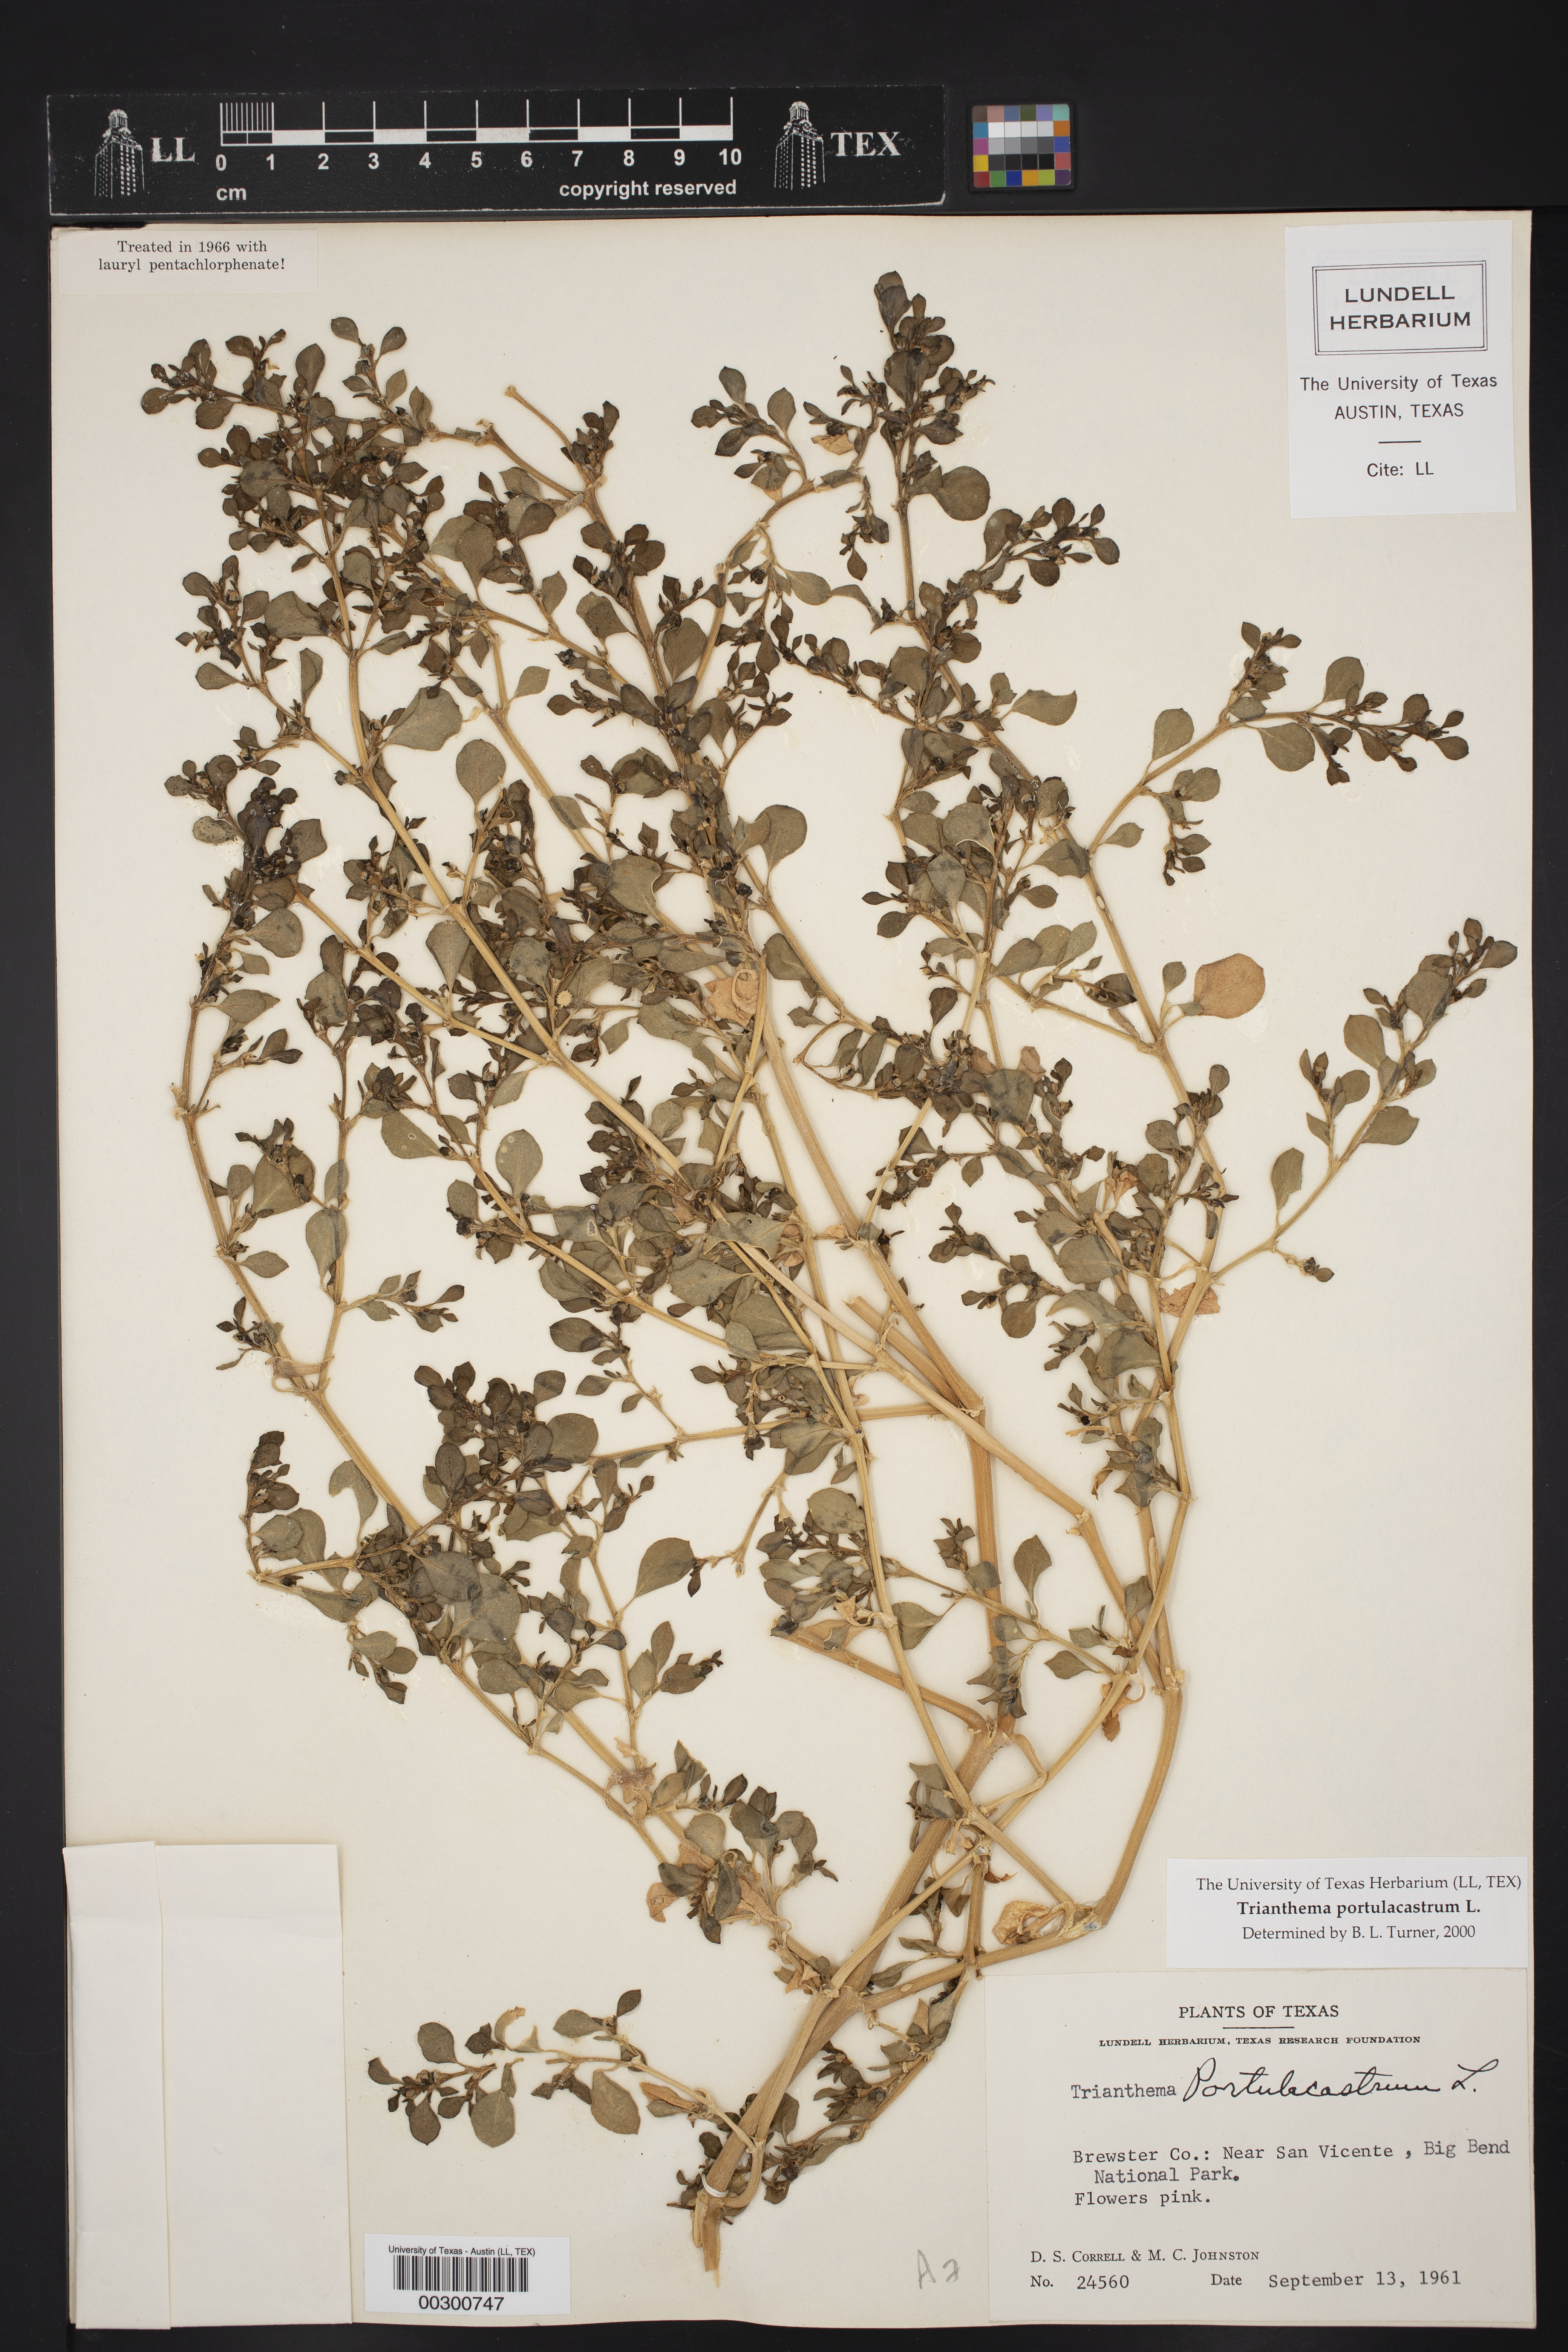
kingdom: Plantae
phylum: Tracheophyta
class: Magnoliopsida
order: Caryophyllales
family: Aizoaceae
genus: Trianthema
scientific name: Trianthema portulacastrum
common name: Desert horsepurslane
